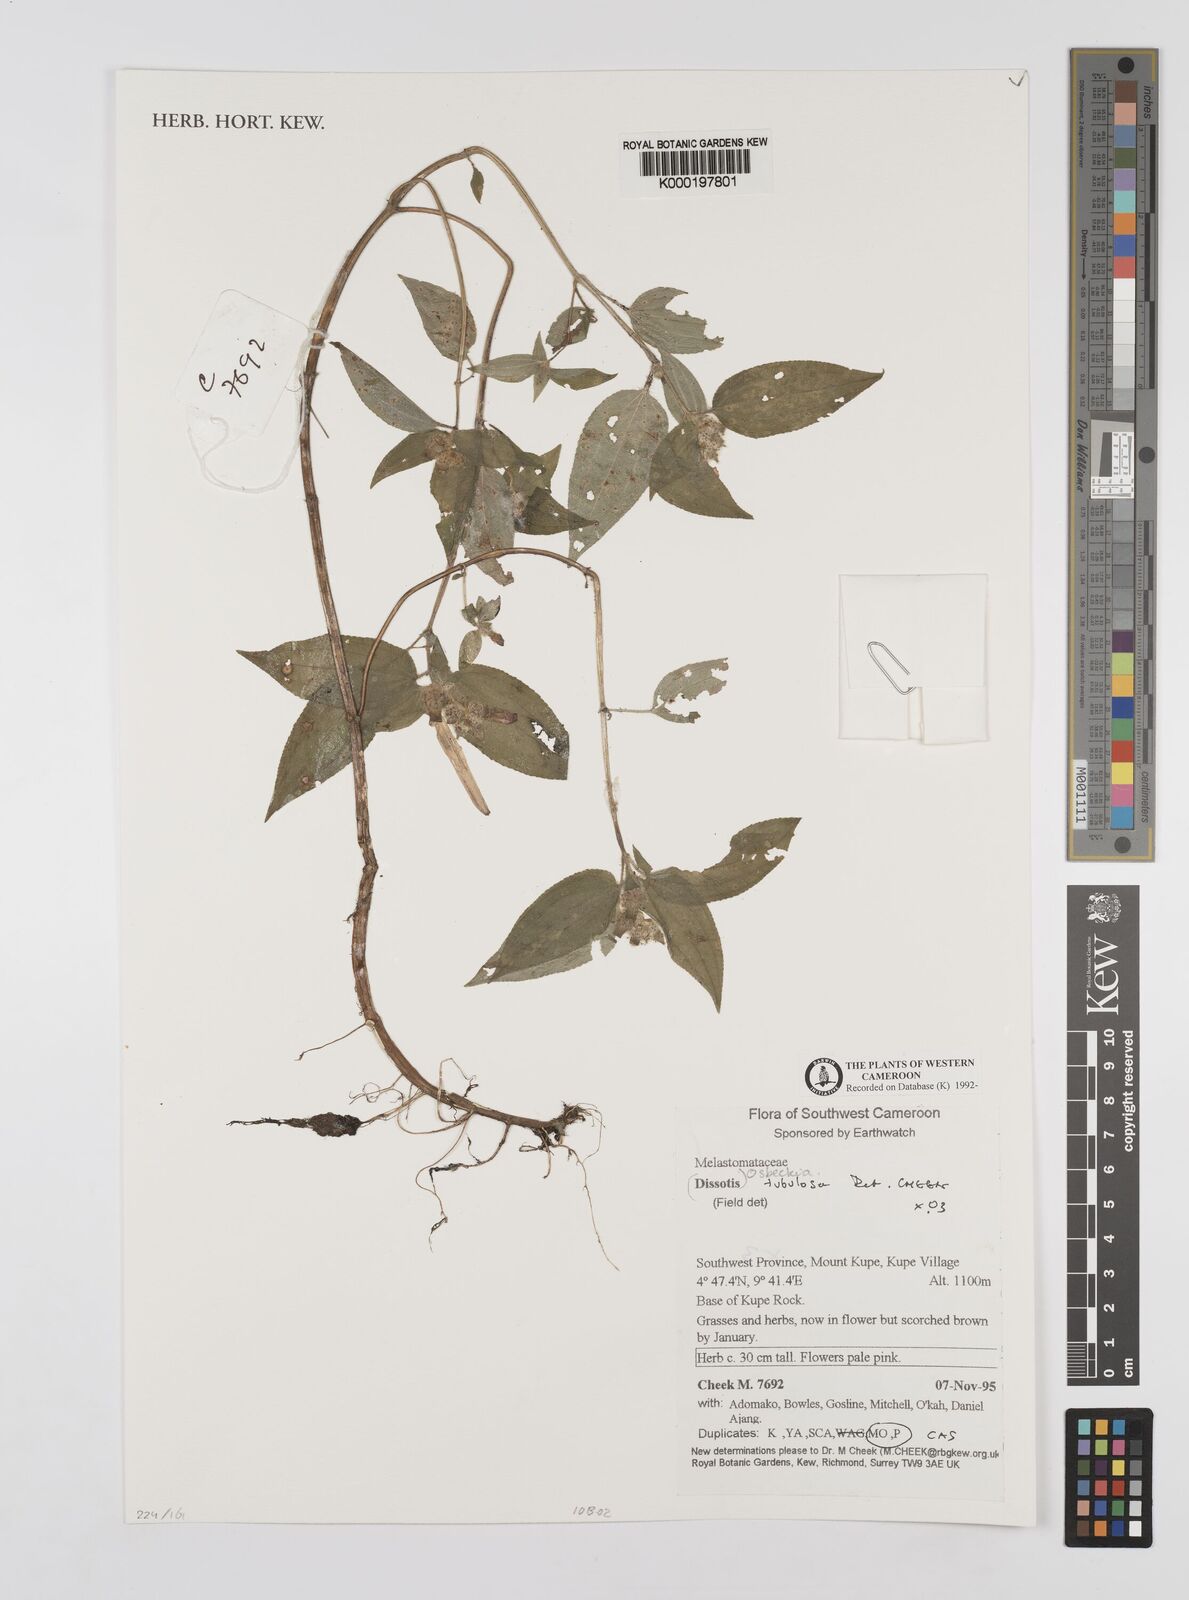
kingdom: Plantae
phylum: Tracheophyta
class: Magnoliopsida
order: Myrtales
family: Melastomataceae
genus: Derosiphia
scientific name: Derosiphia tubulosa
